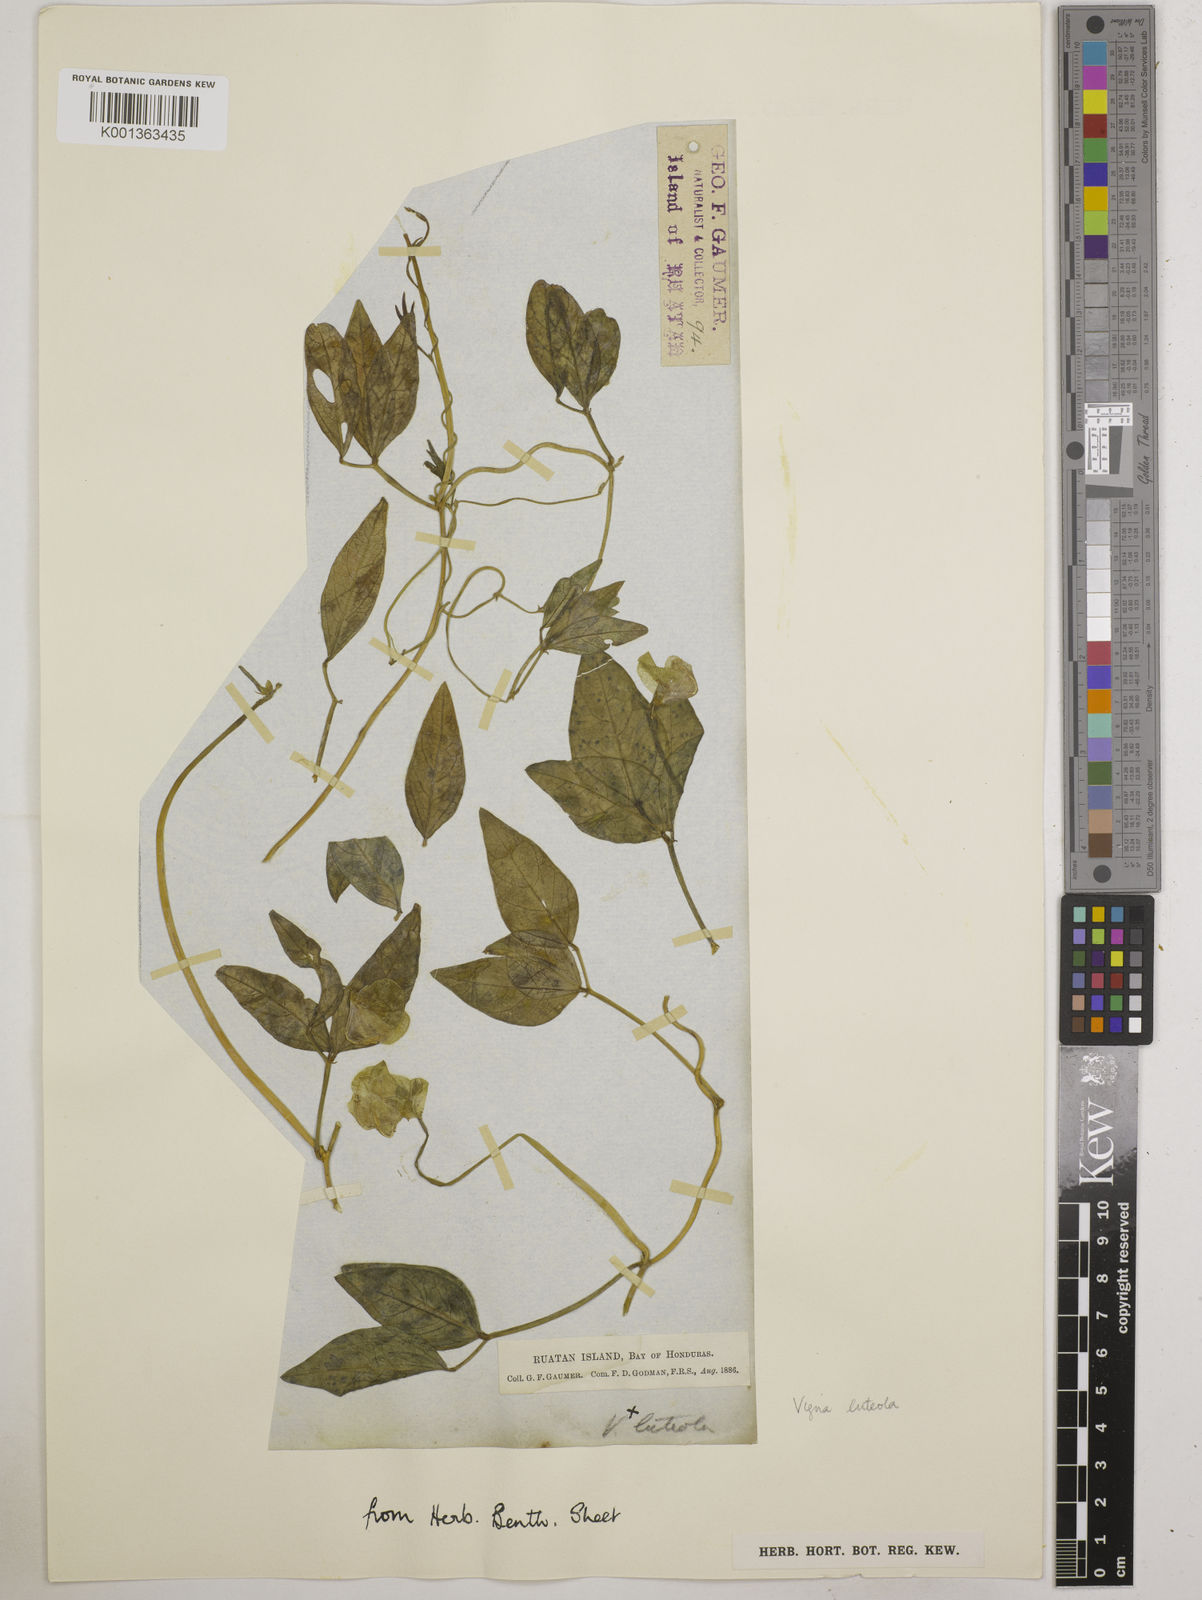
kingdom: Plantae
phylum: Tracheophyta
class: Magnoliopsida
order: Fabales
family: Fabaceae
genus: Vigna
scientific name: Vigna luteola
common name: Hairypod cowpea
